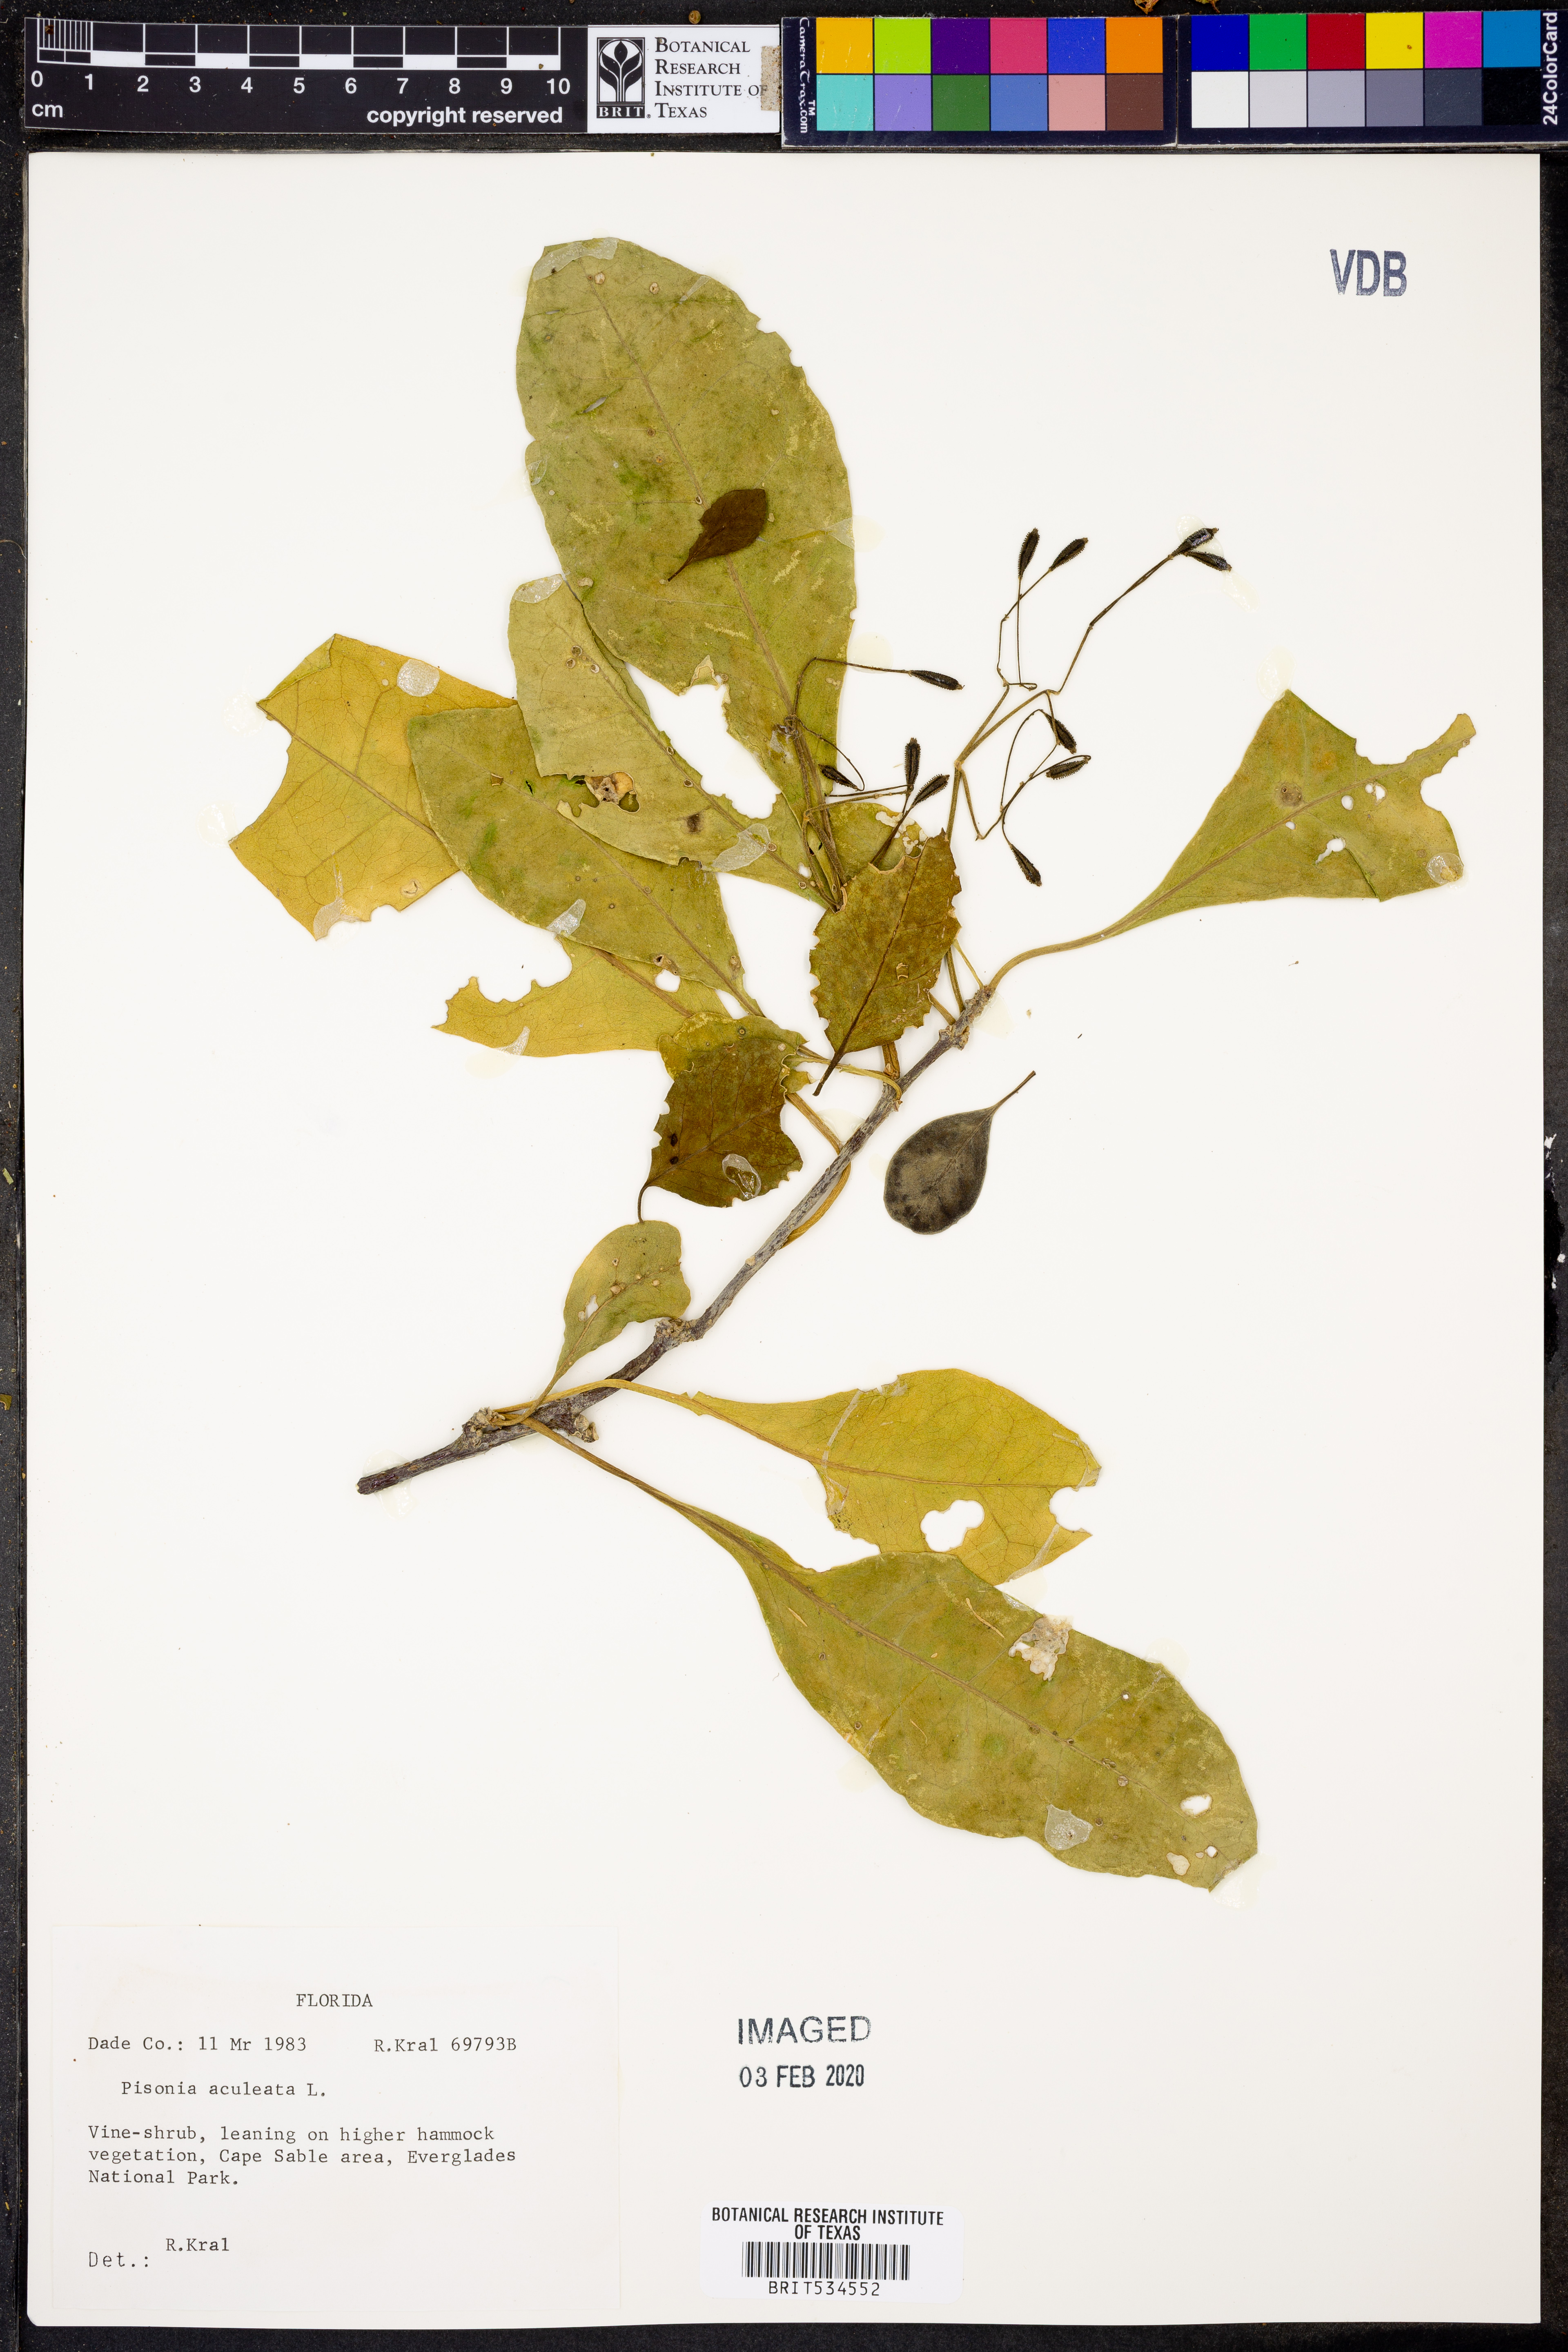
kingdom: Plantae
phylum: Tracheophyta
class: Magnoliopsida
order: Caryophyllales
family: Nyctaginaceae
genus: Pisonia
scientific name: Pisonia aculeata
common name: Cockspur vine
